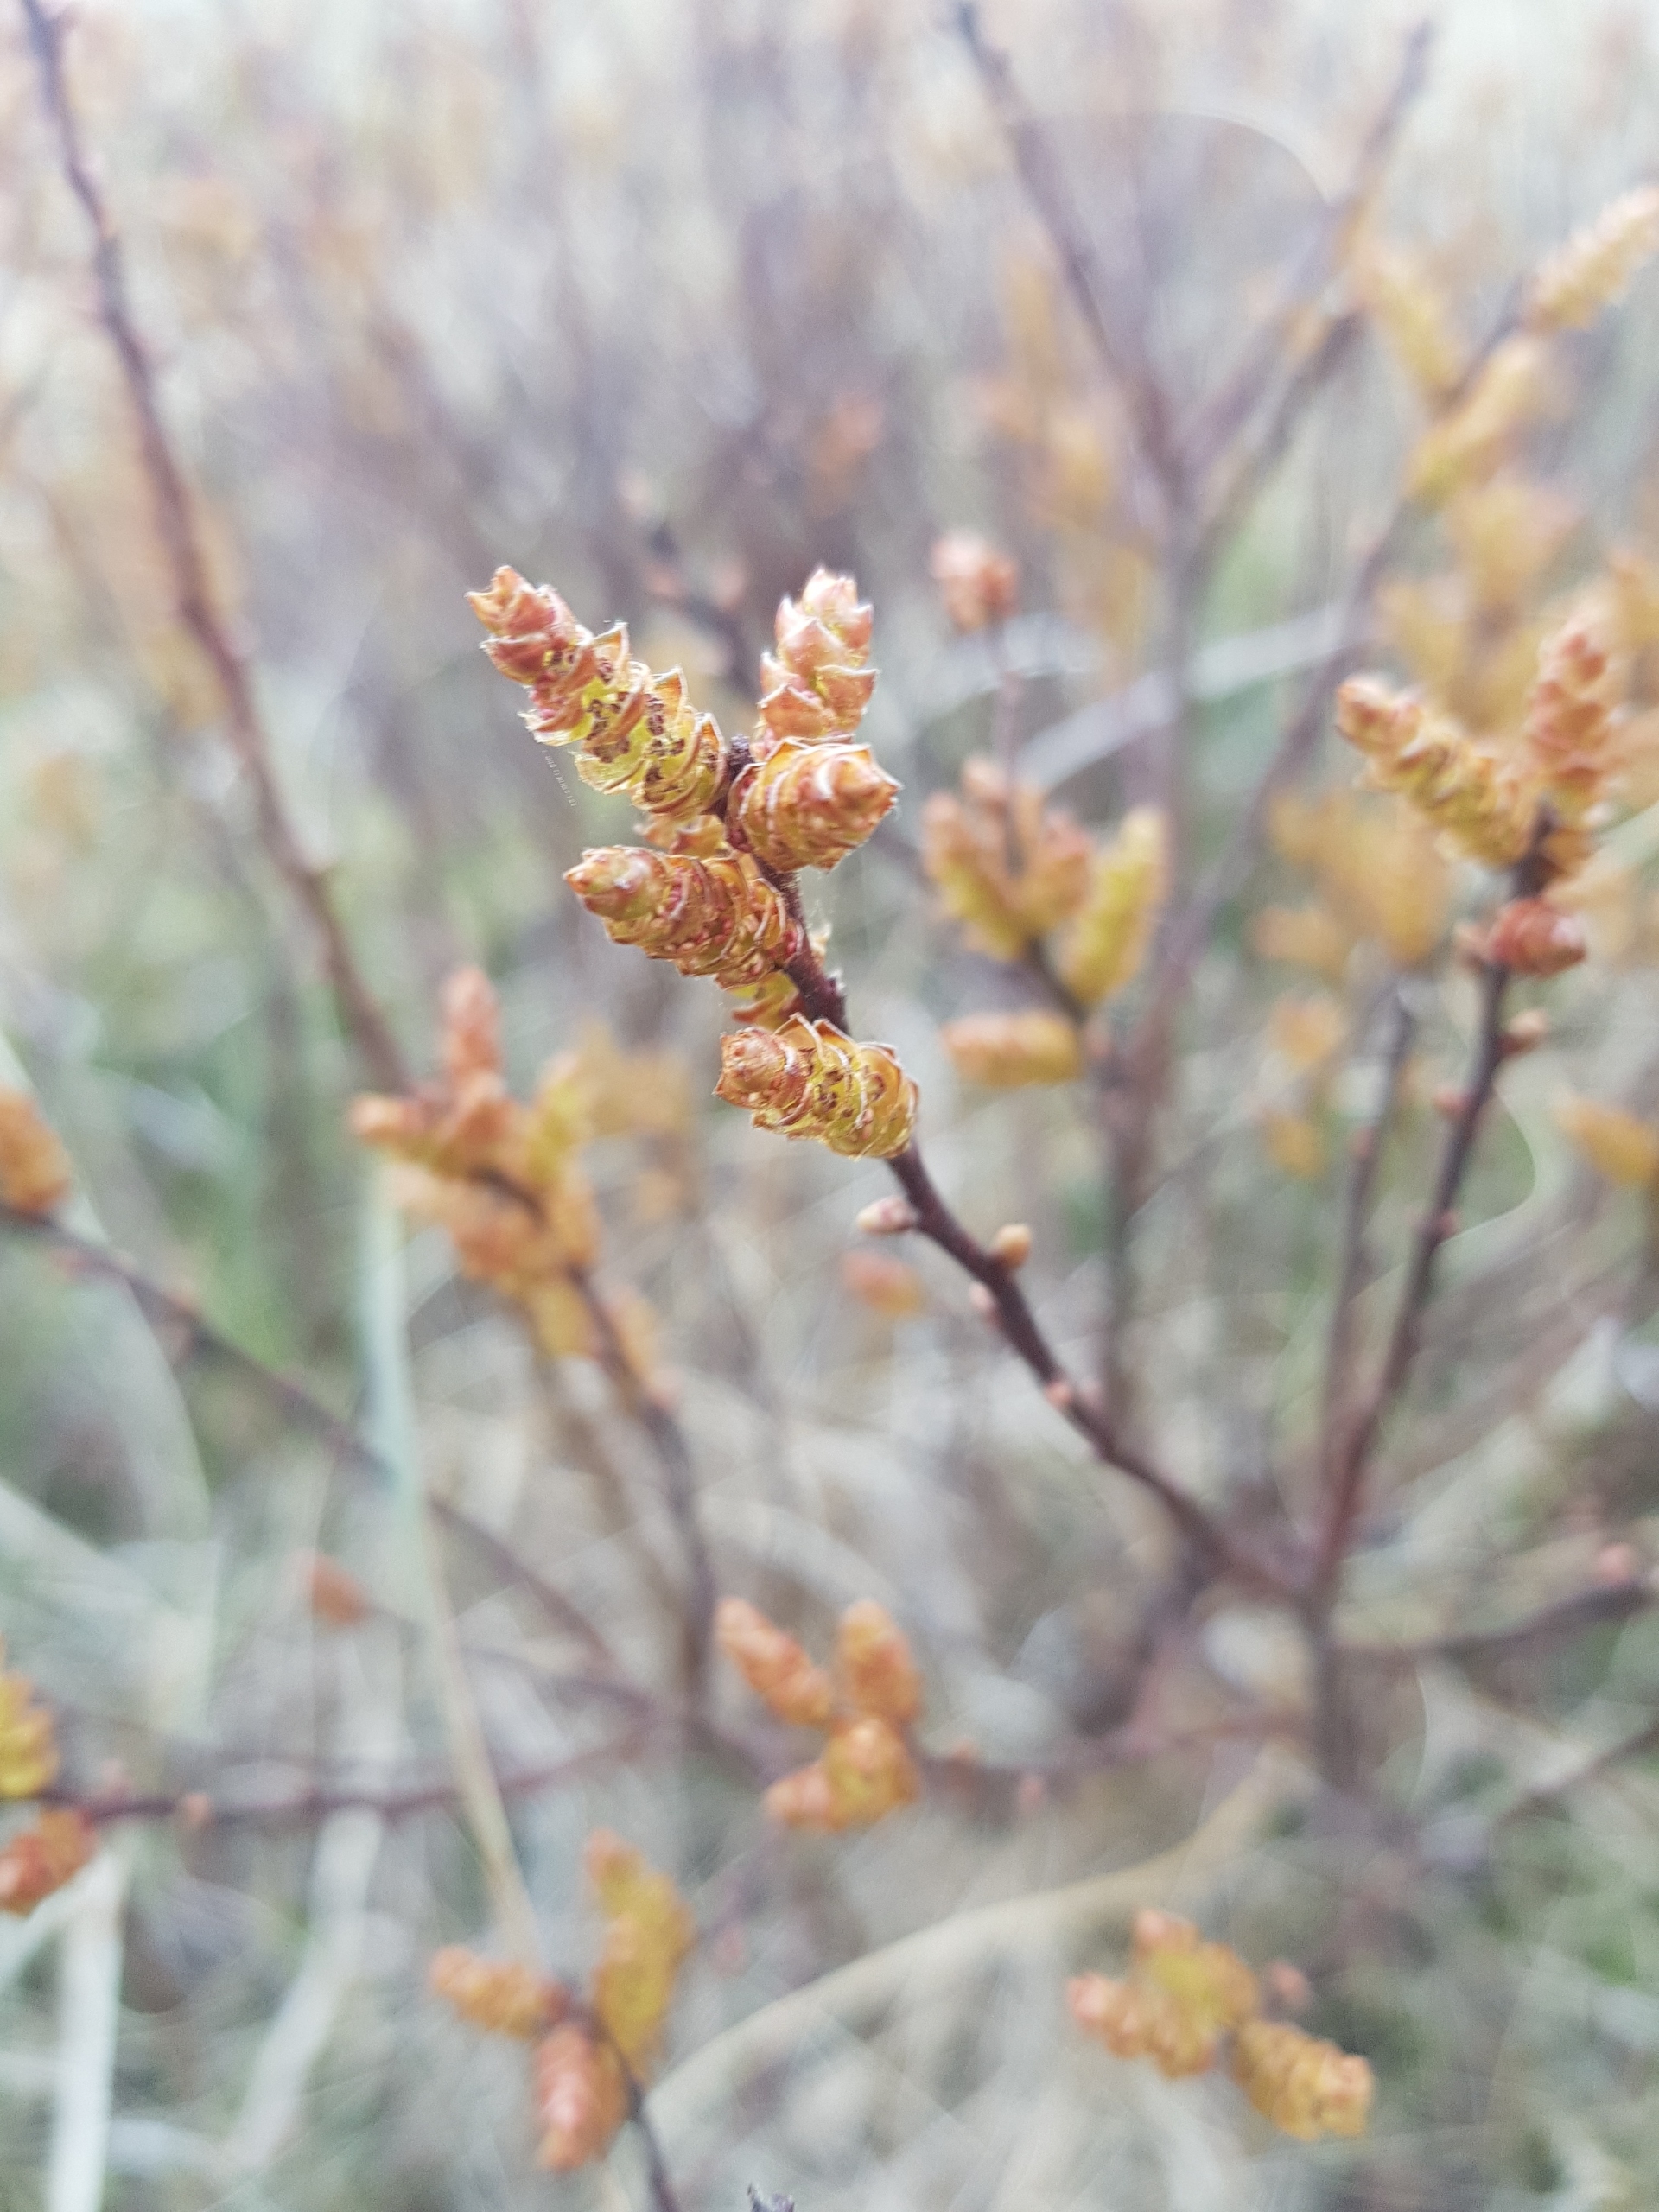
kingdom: Plantae
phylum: Tracheophyta
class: Magnoliopsida
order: Fagales
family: Myricaceae
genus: Myrica
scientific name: Myrica gale
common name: Pors
